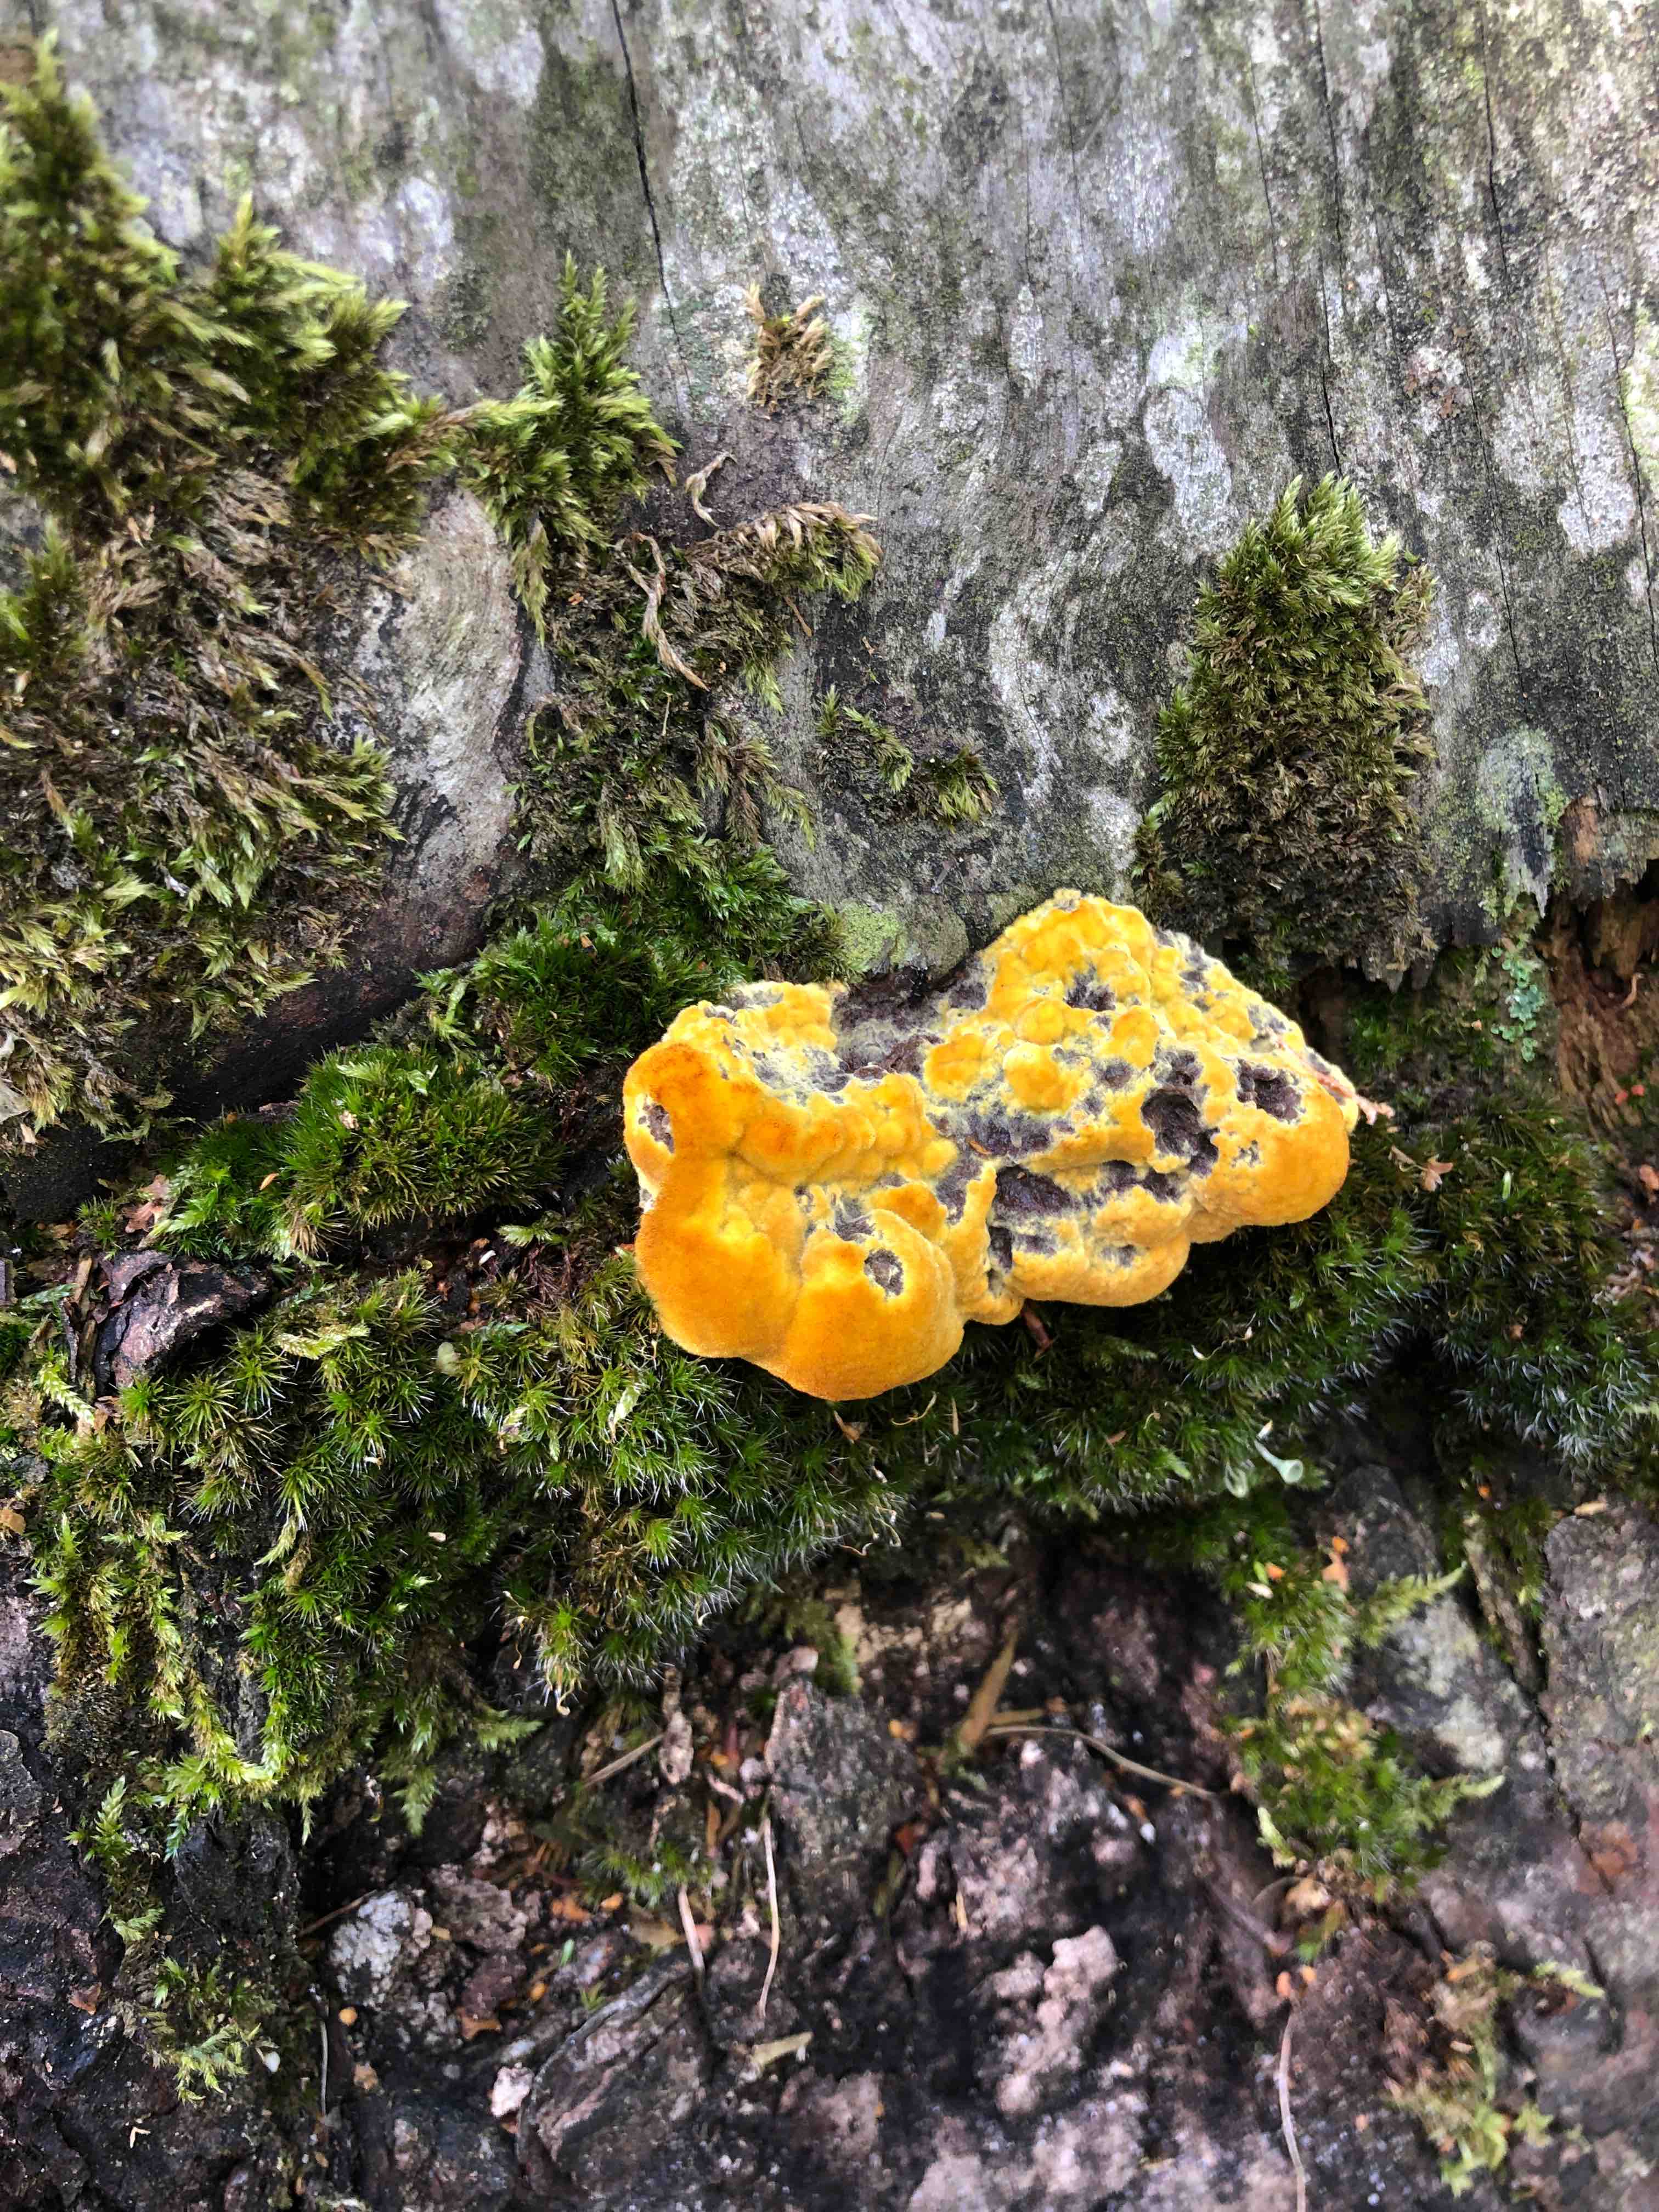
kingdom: Fungi
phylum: Basidiomycota
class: Agaricomycetes
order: Polyporales
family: Laetiporaceae
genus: Phaeolus
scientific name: Phaeolus schweinitzii
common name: brunporesvamp
